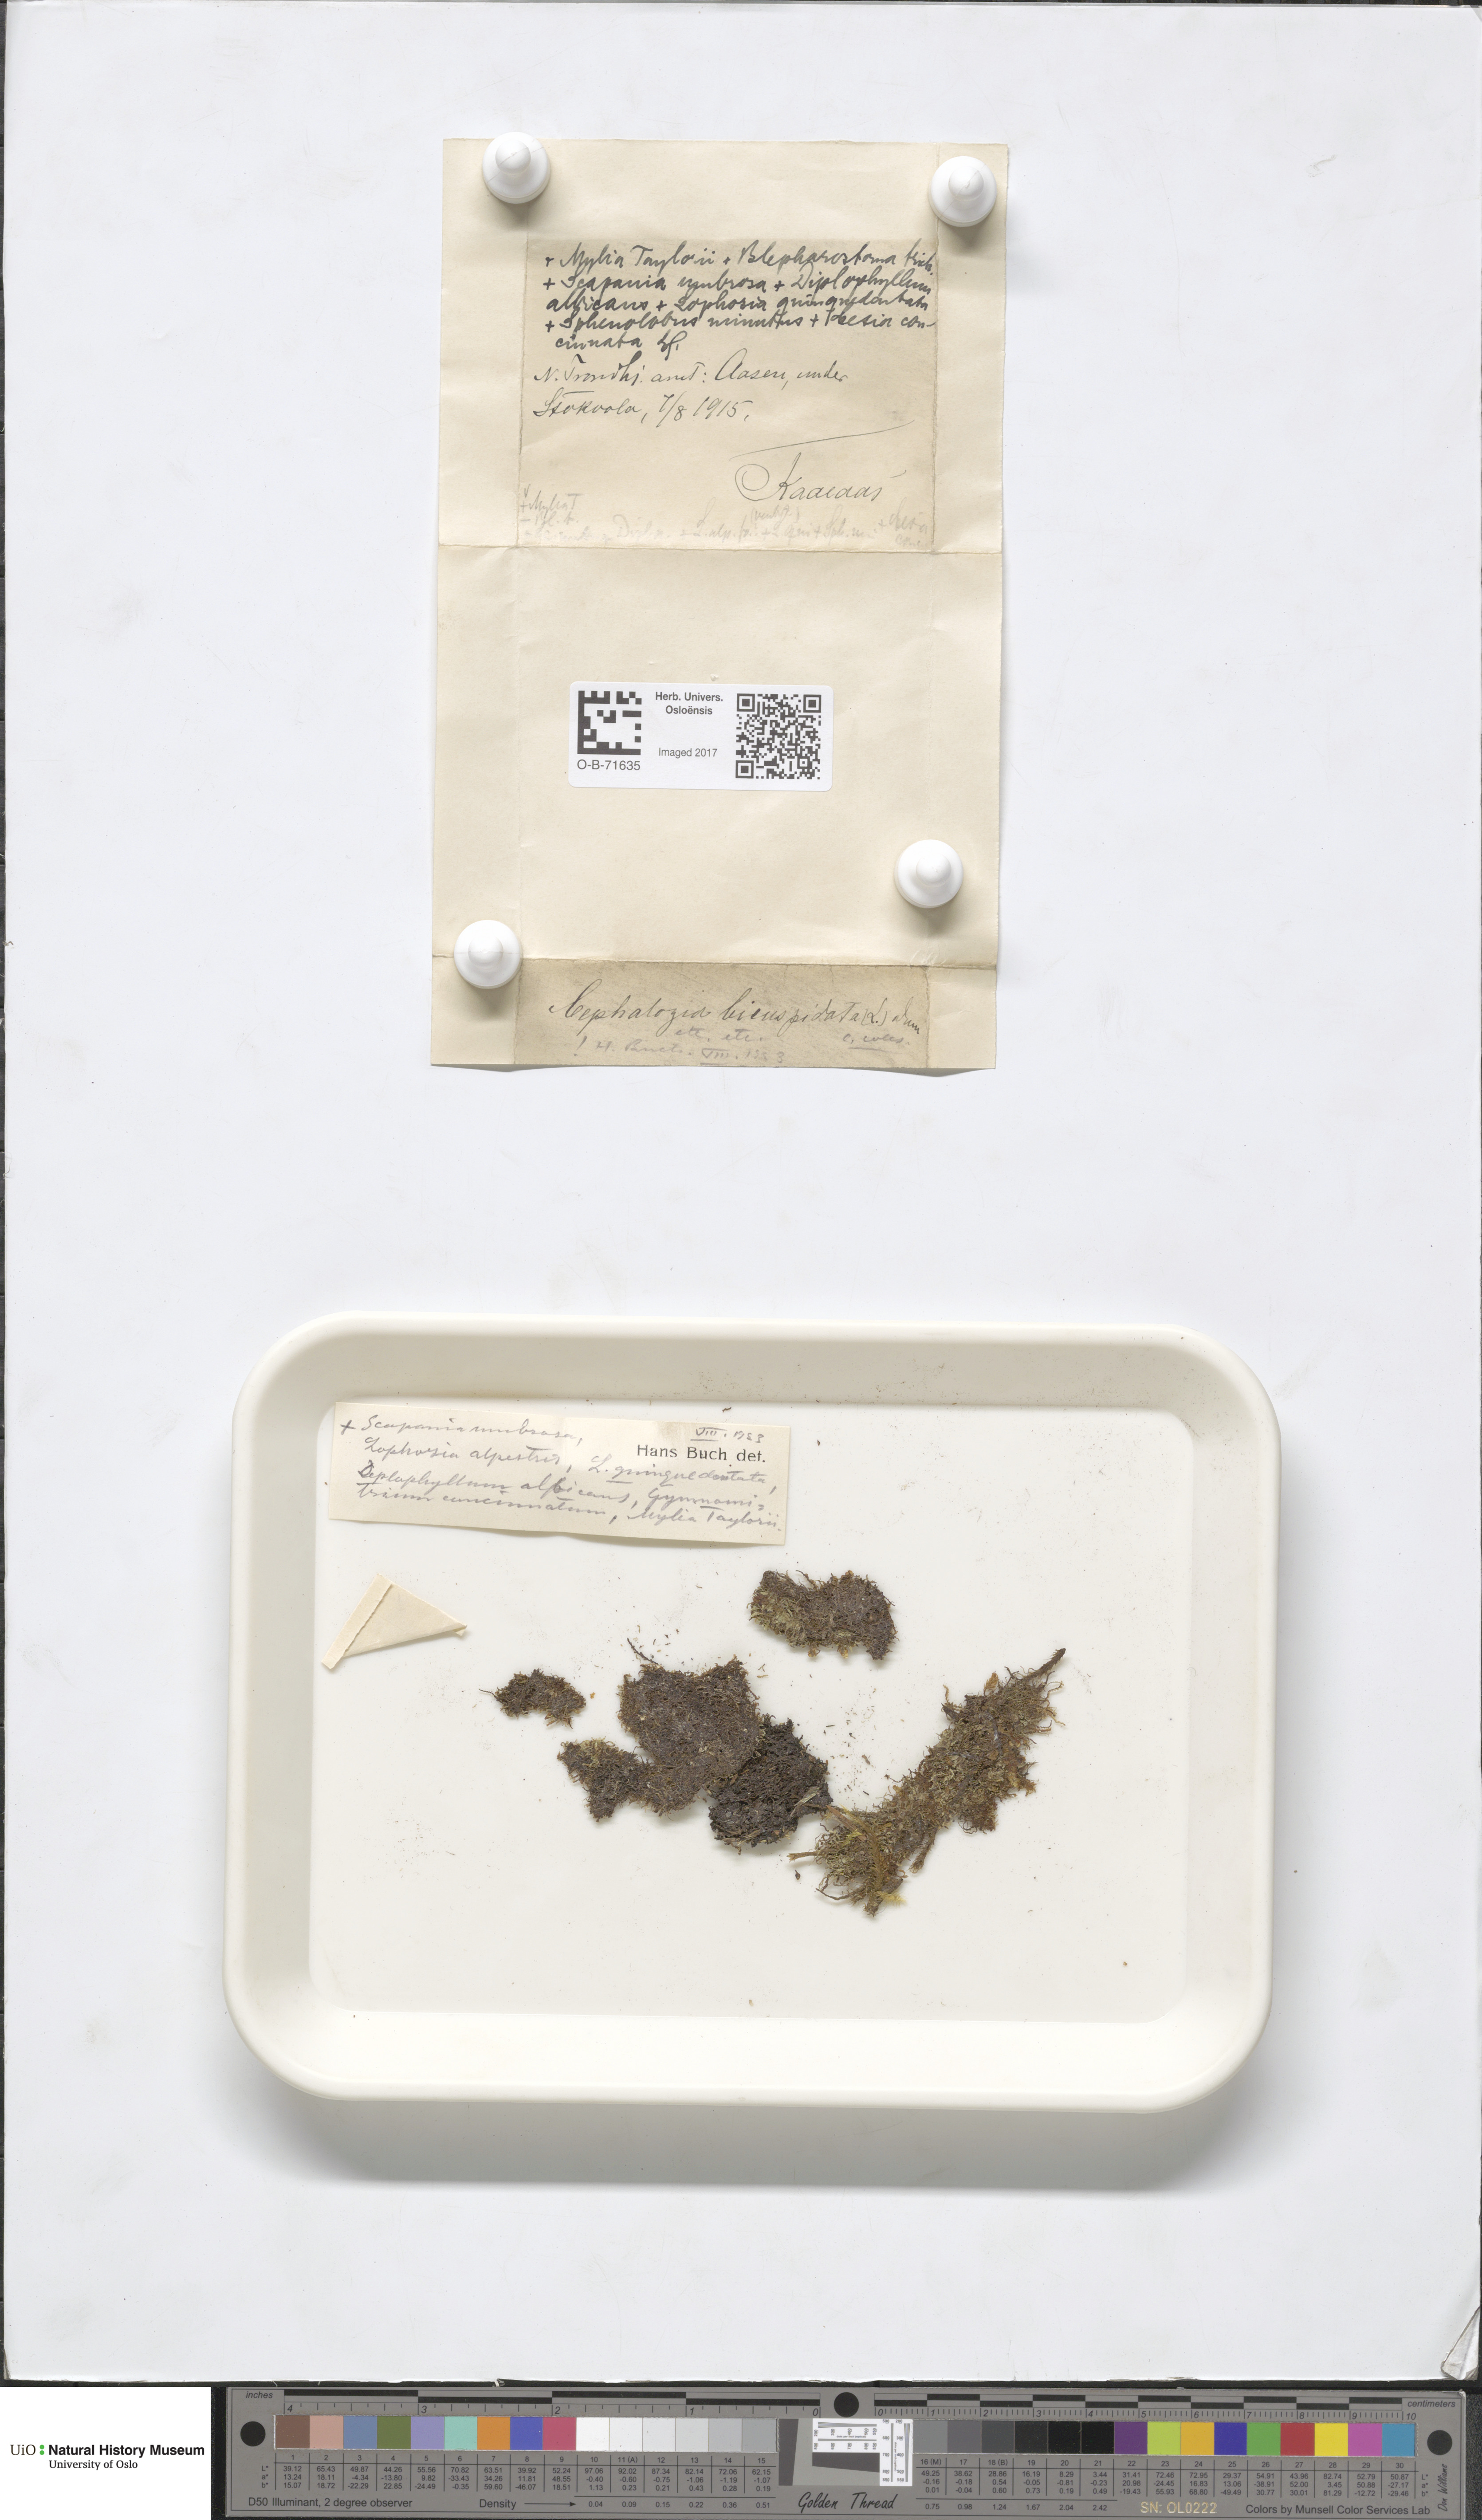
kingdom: Plantae
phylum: Marchantiophyta
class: Jungermanniopsida
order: Jungermanniales
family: Cephaloziaceae
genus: Cephalozia
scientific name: Cephalozia bicuspidata
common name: Two-horned pincerwort
